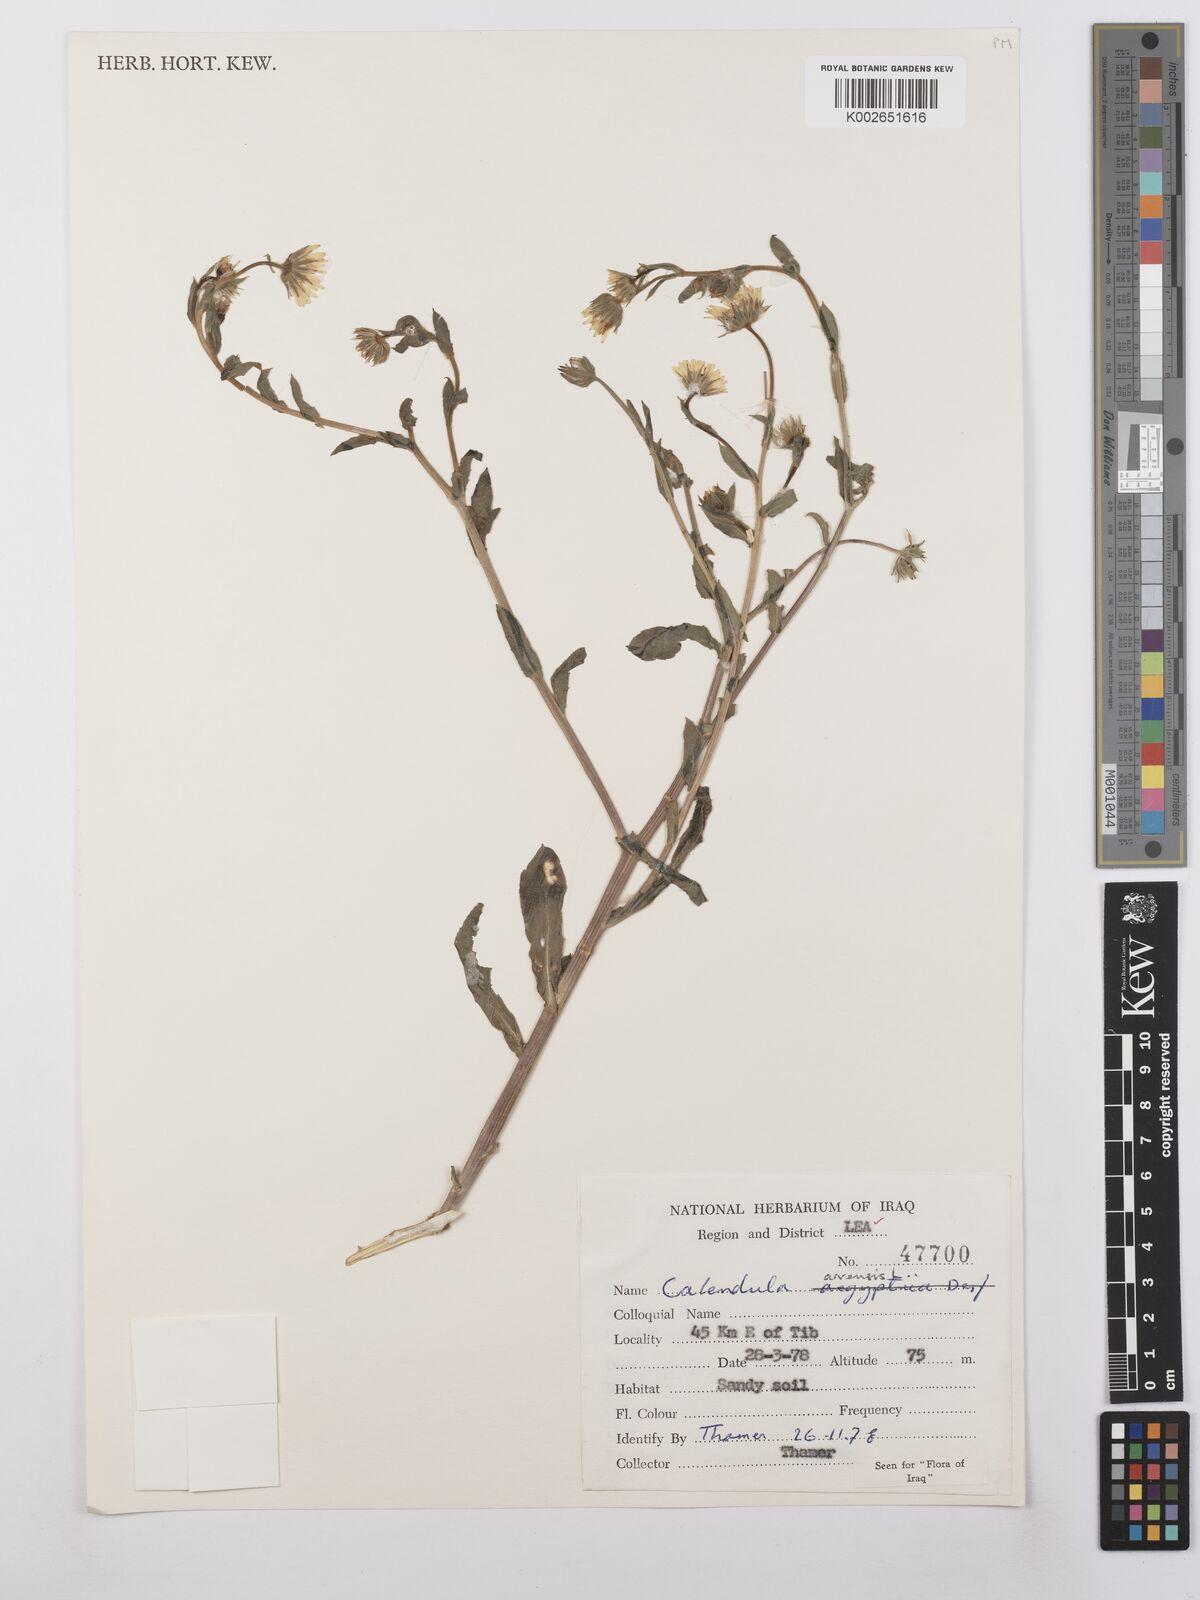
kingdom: Plantae
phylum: Tracheophyta
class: Magnoliopsida
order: Asterales
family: Asteraceae
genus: Calendula
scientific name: Calendula arvensis
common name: Field marigold
